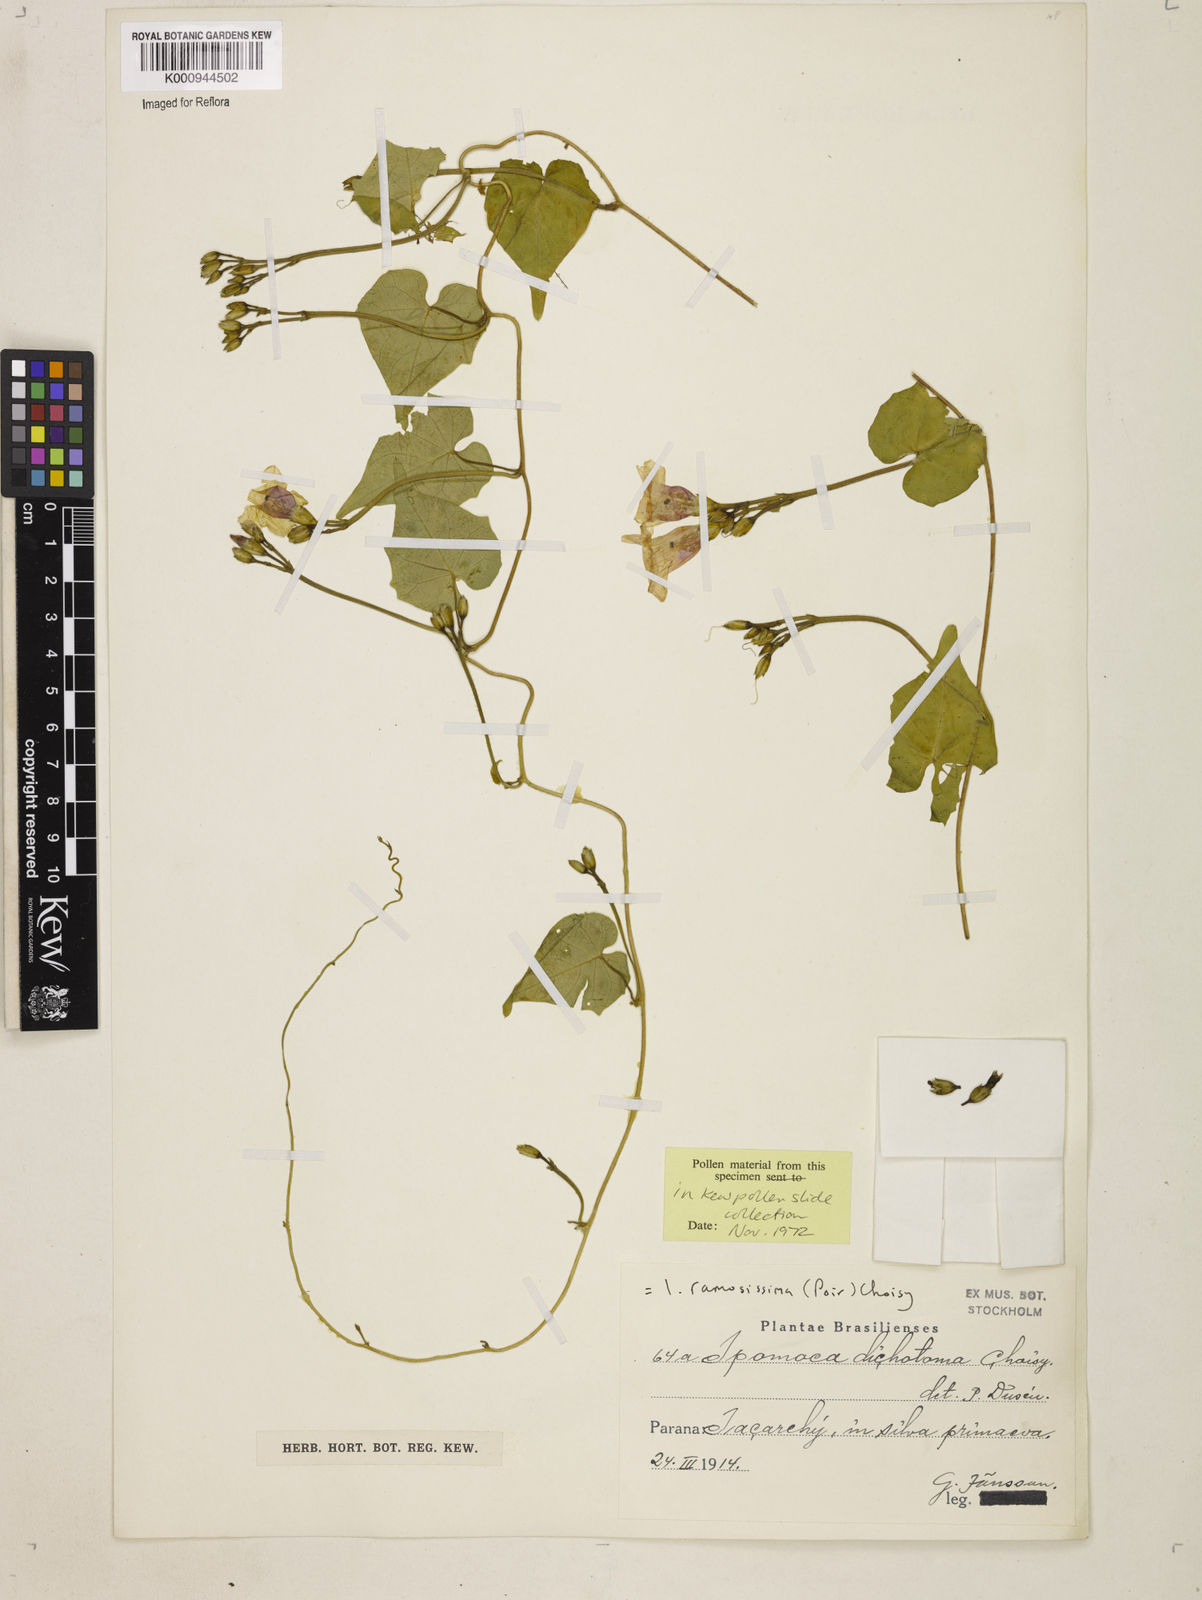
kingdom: Plantae
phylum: Tracheophyta
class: Magnoliopsida
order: Solanales
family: Convolvulaceae
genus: Ipomoea
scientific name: Ipomoea ramosissima
